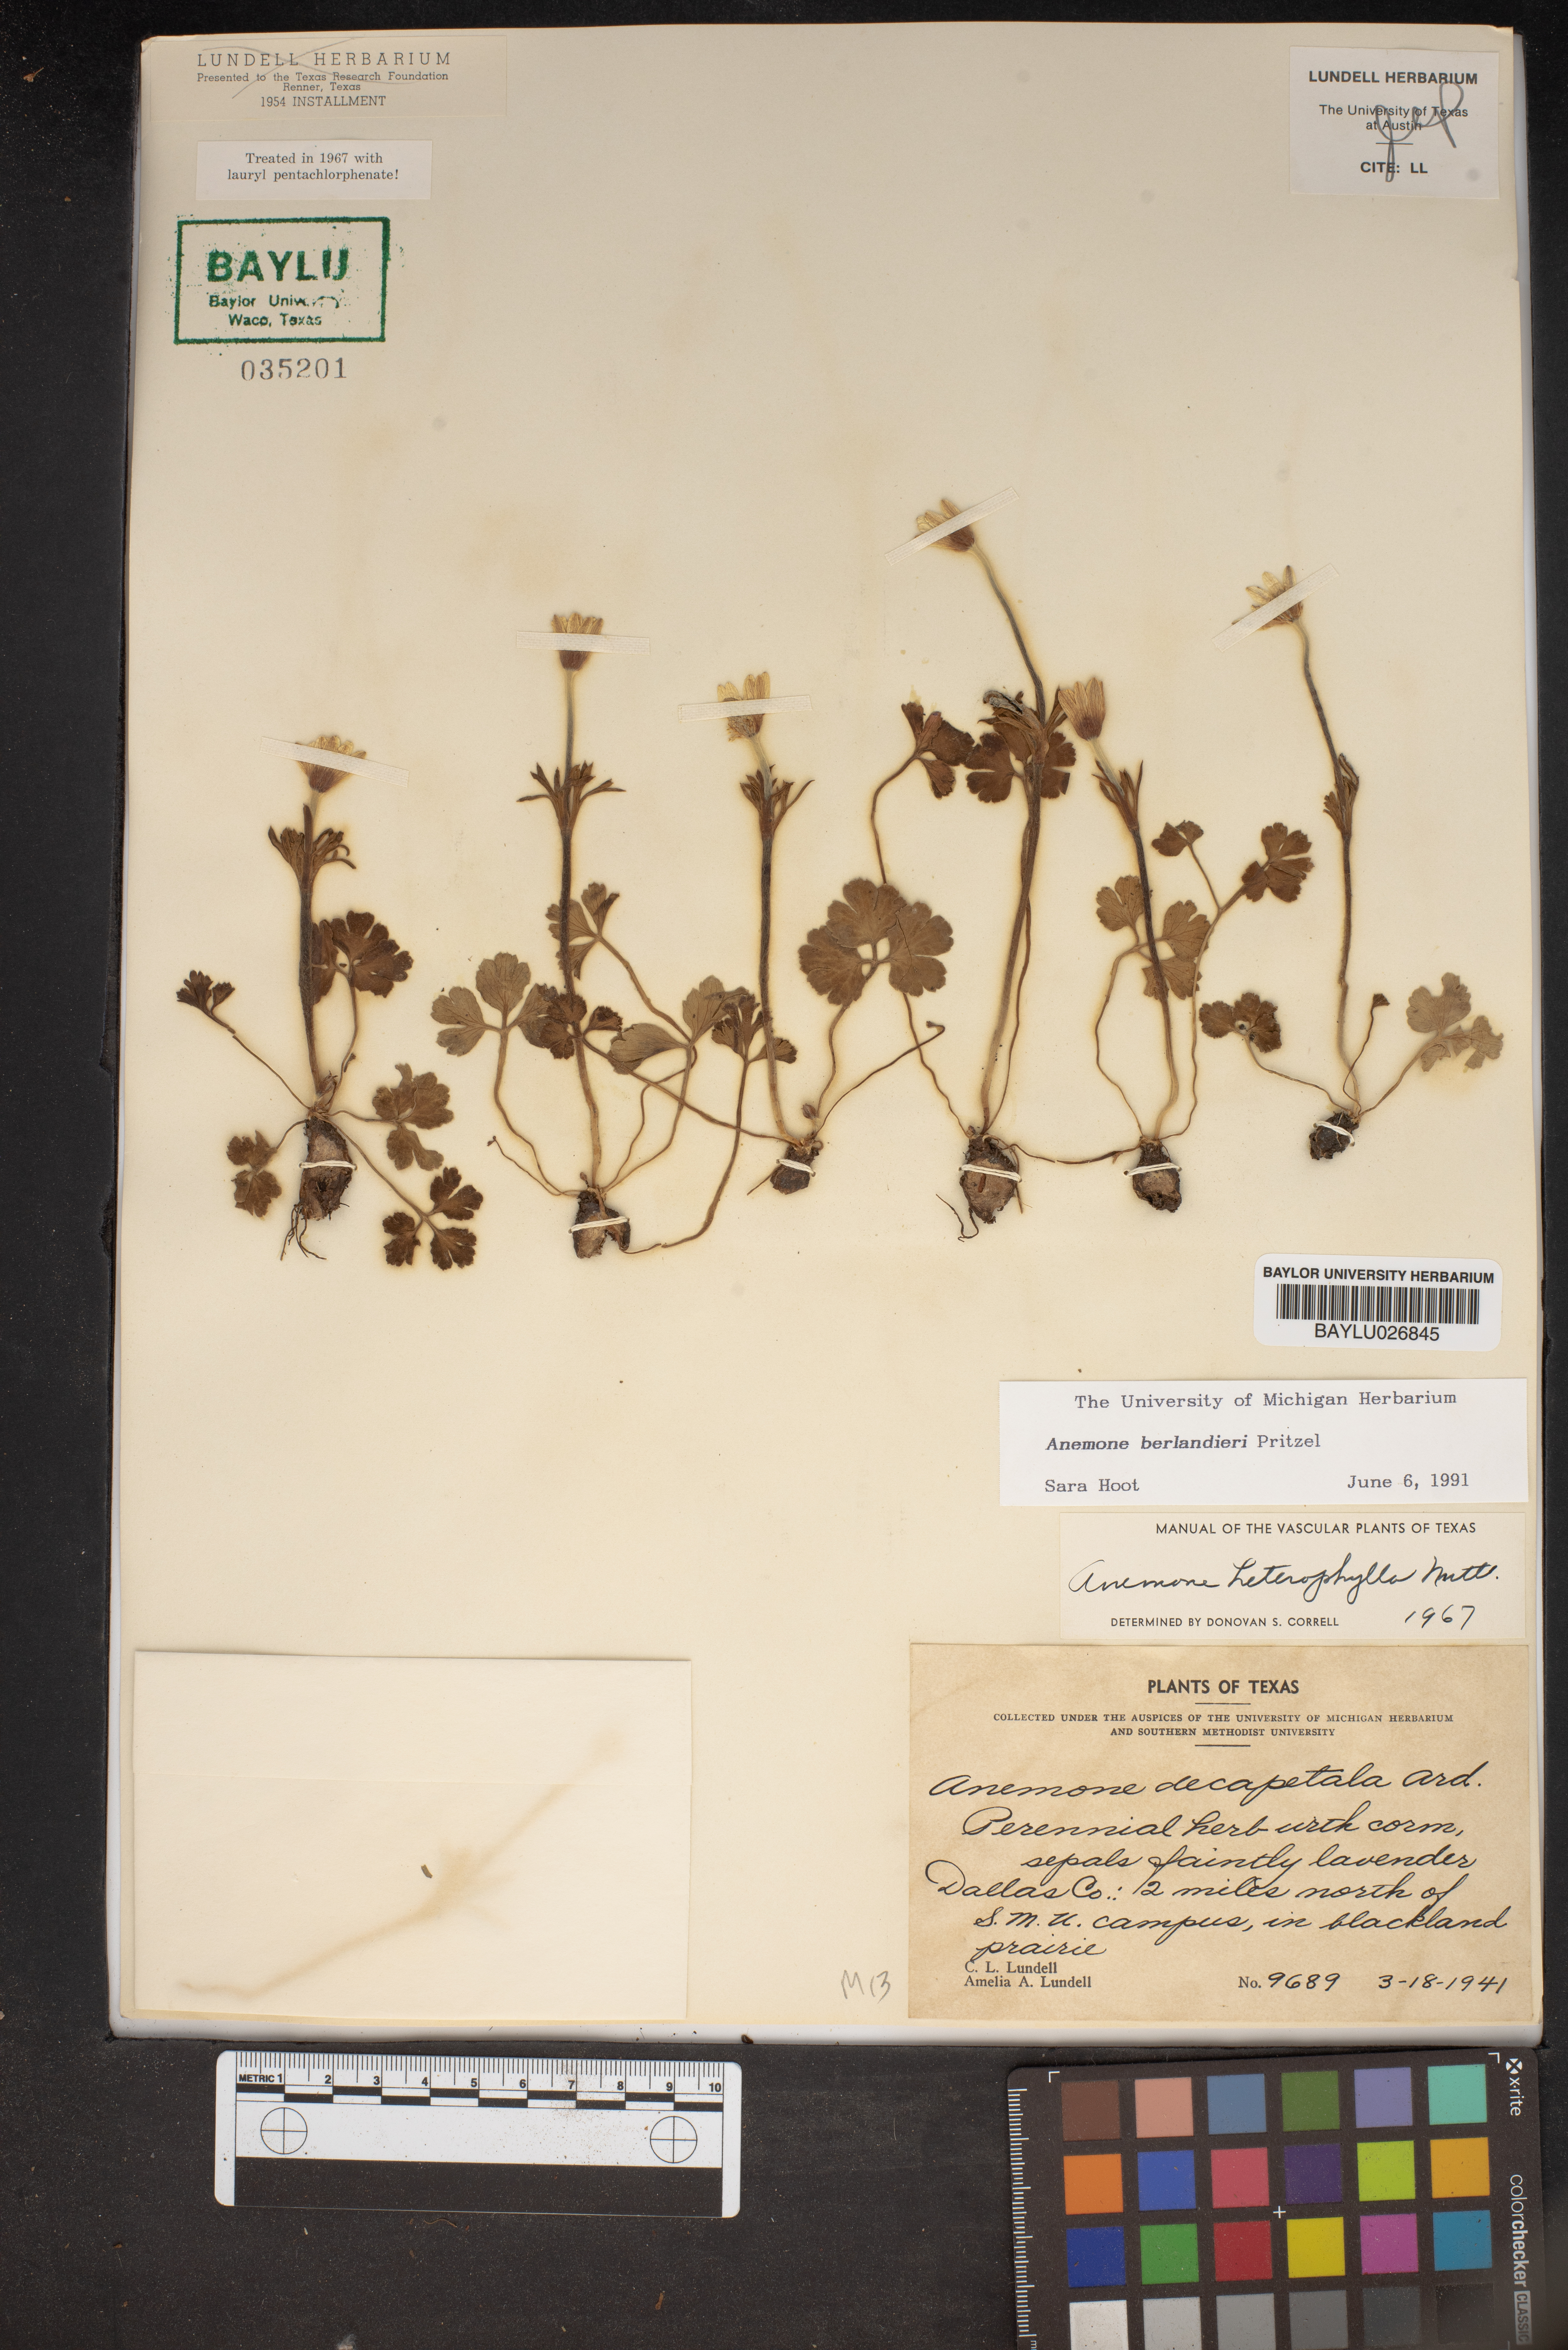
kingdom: Plantae
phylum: Tracheophyta
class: Magnoliopsida
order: Ranunculales
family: Ranunculaceae
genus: Anemone
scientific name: Anemone berlandieri
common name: Ten-petal anemone
